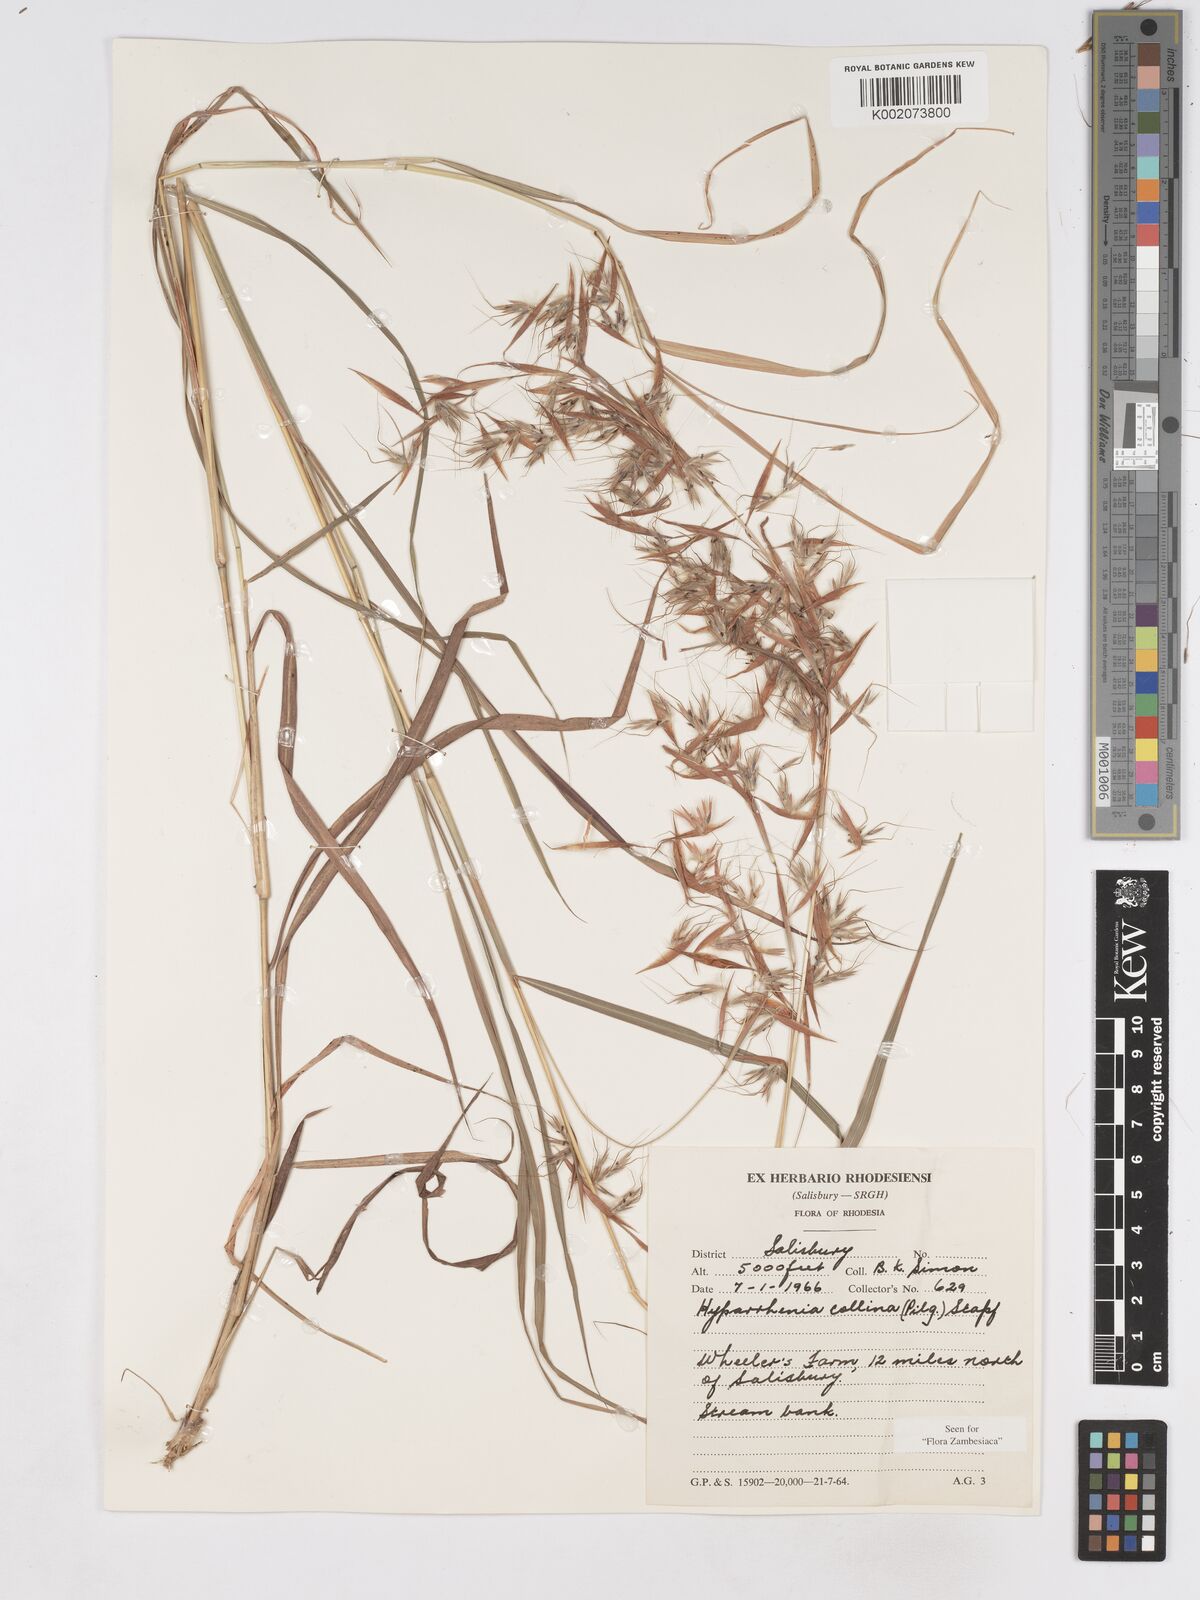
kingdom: Plantae
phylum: Tracheophyta
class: Liliopsida
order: Poales
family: Poaceae
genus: Hyparrhenia
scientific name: Hyparrhenia collina
